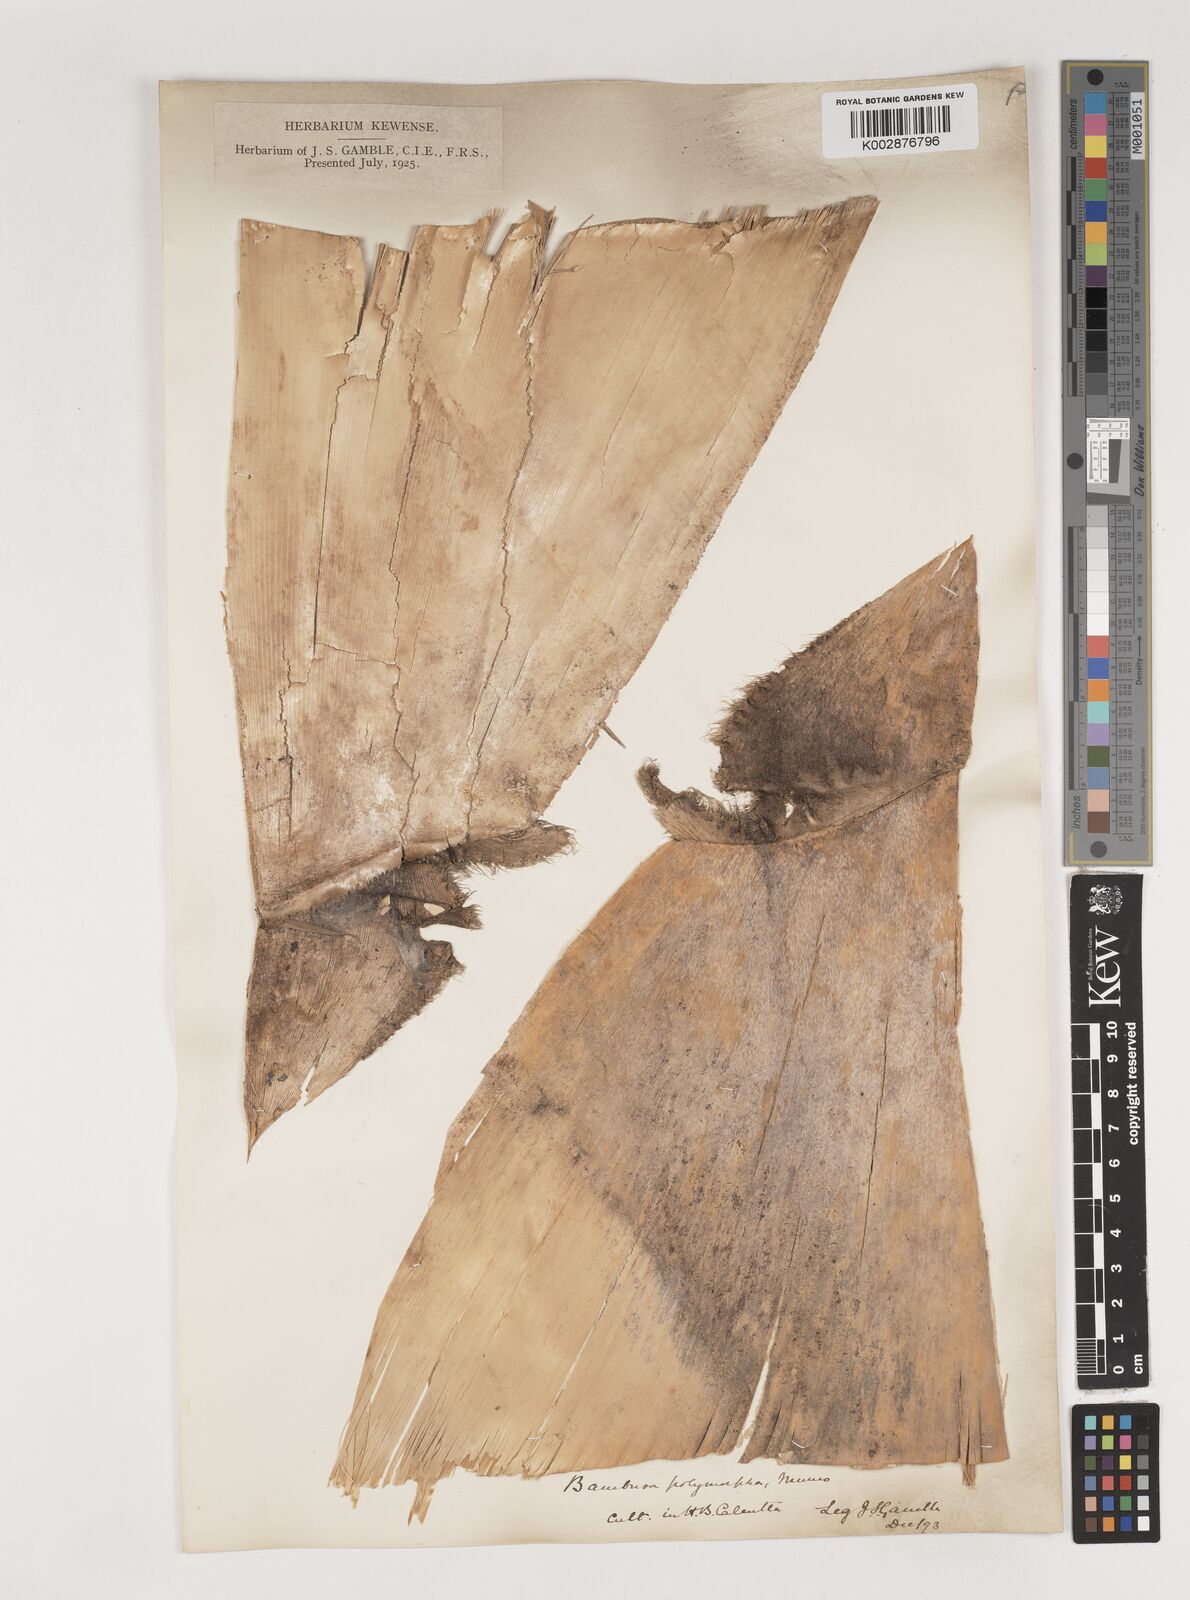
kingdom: Plantae
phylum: Tracheophyta
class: Liliopsida
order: Poales
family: Poaceae
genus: Bambusa
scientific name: Bambusa polymorpha
